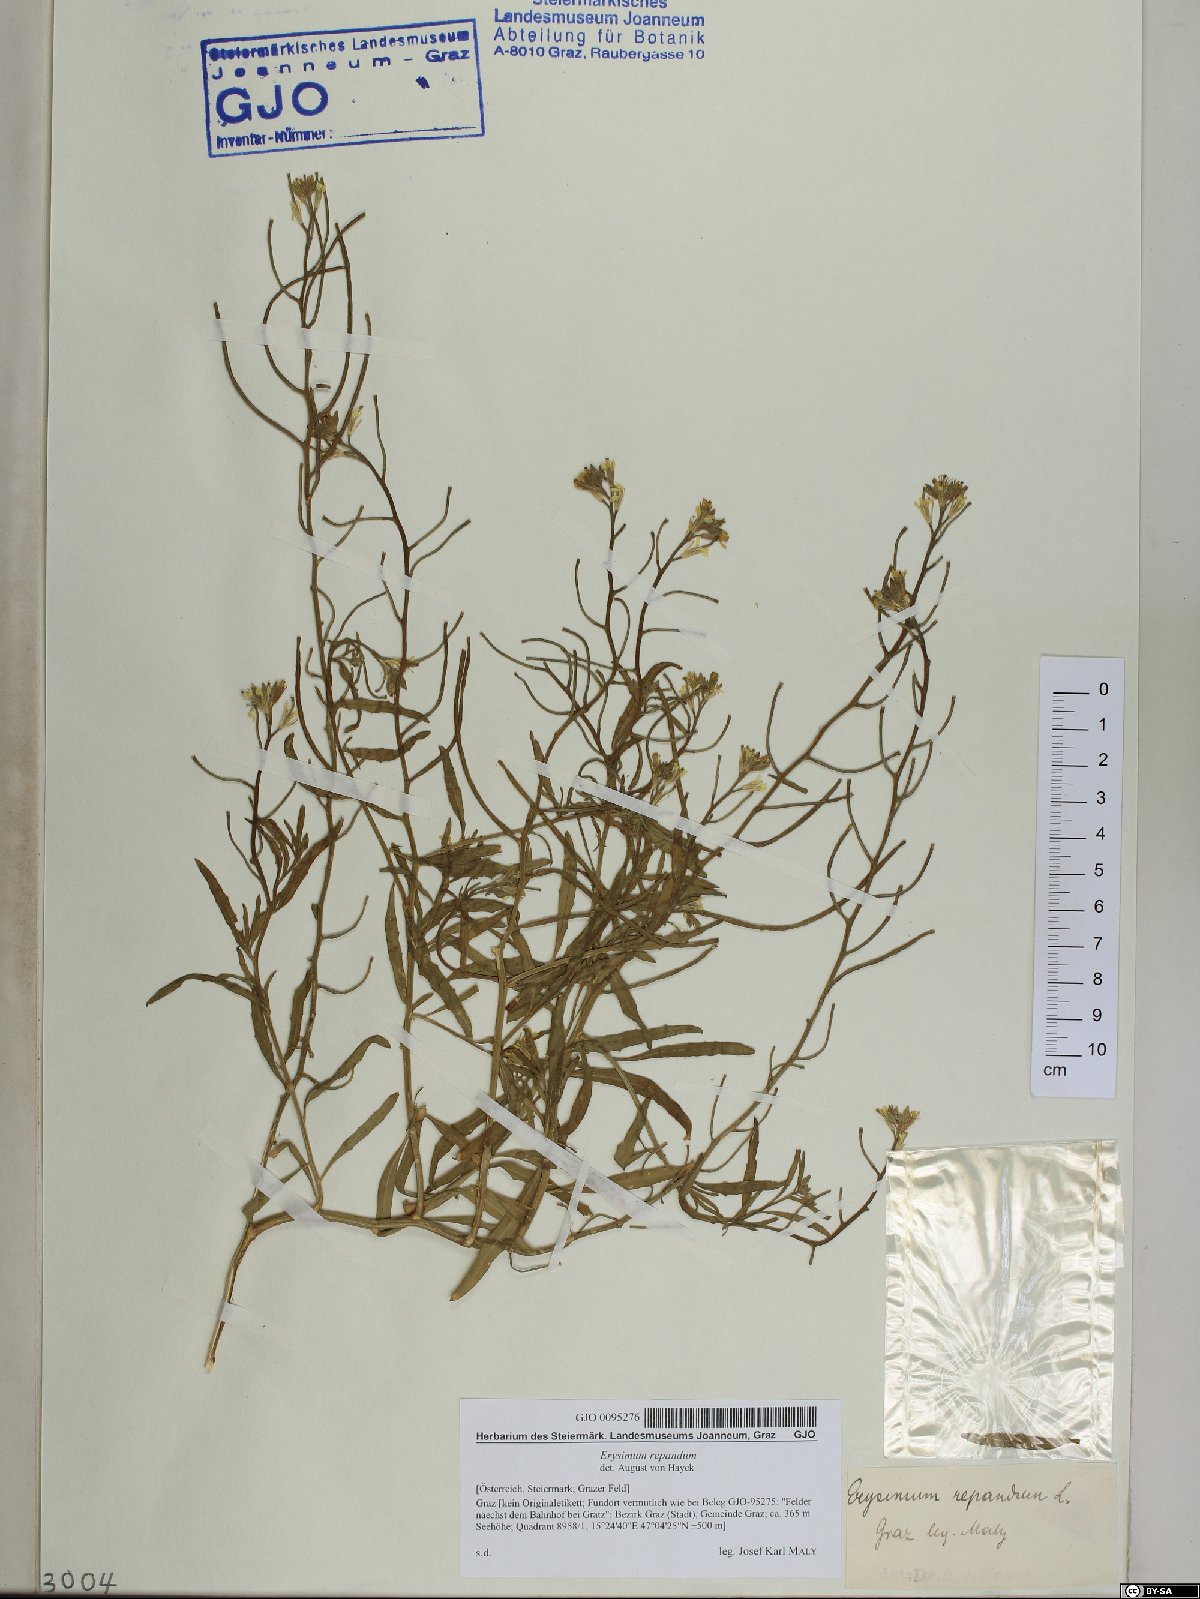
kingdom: Plantae
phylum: Tracheophyta
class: Magnoliopsida
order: Brassicales
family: Brassicaceae
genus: Erysimum
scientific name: Erysimum repandum
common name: Spreading wallflower
